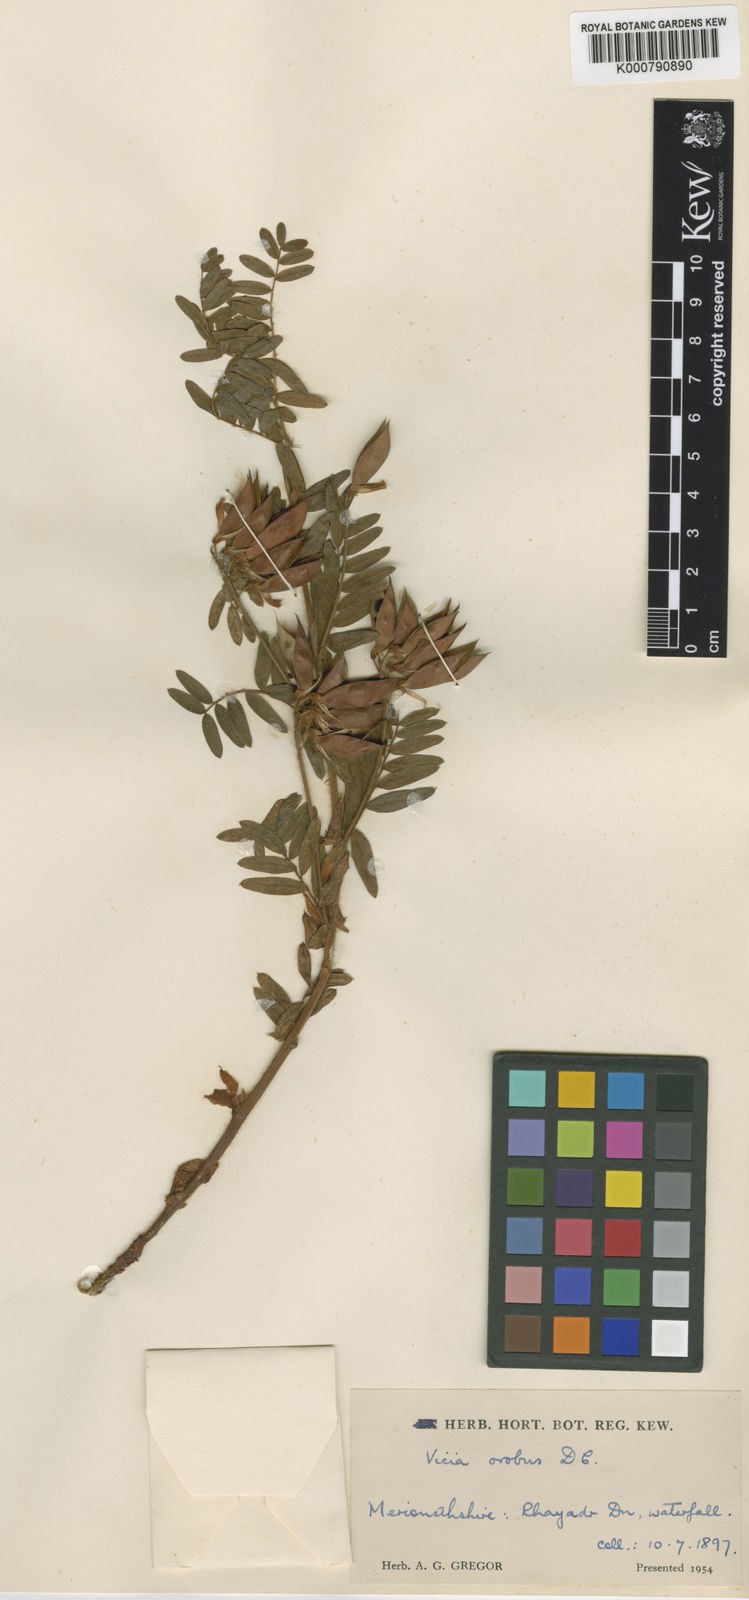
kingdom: Plantae
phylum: Tracheophyta
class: Magnoliopsida
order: Fabales
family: Fabaceae
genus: Vicia
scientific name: Vicia orobus
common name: Wood bitter-vetch
